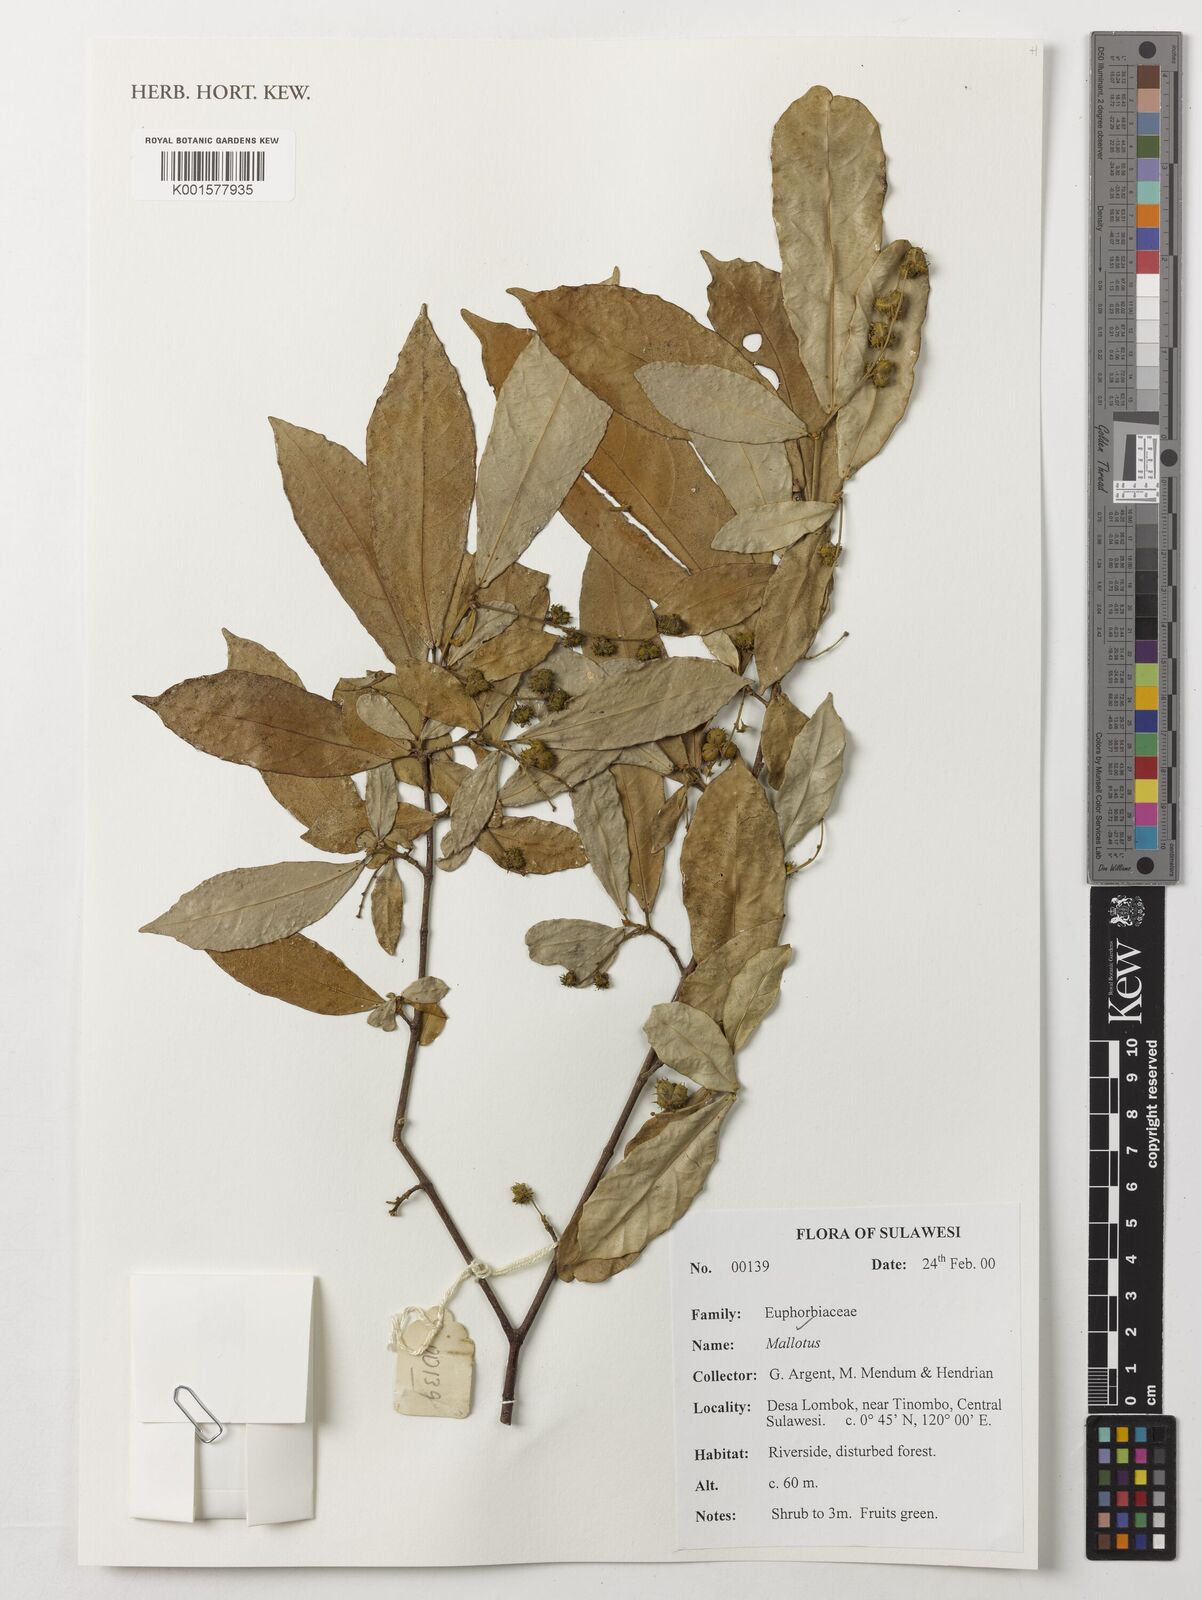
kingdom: Plantae
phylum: Tracheophyta
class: Magnoliopsida
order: Malpighiales
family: Euphorbiaceae
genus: Mallotus
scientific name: Mallotus
